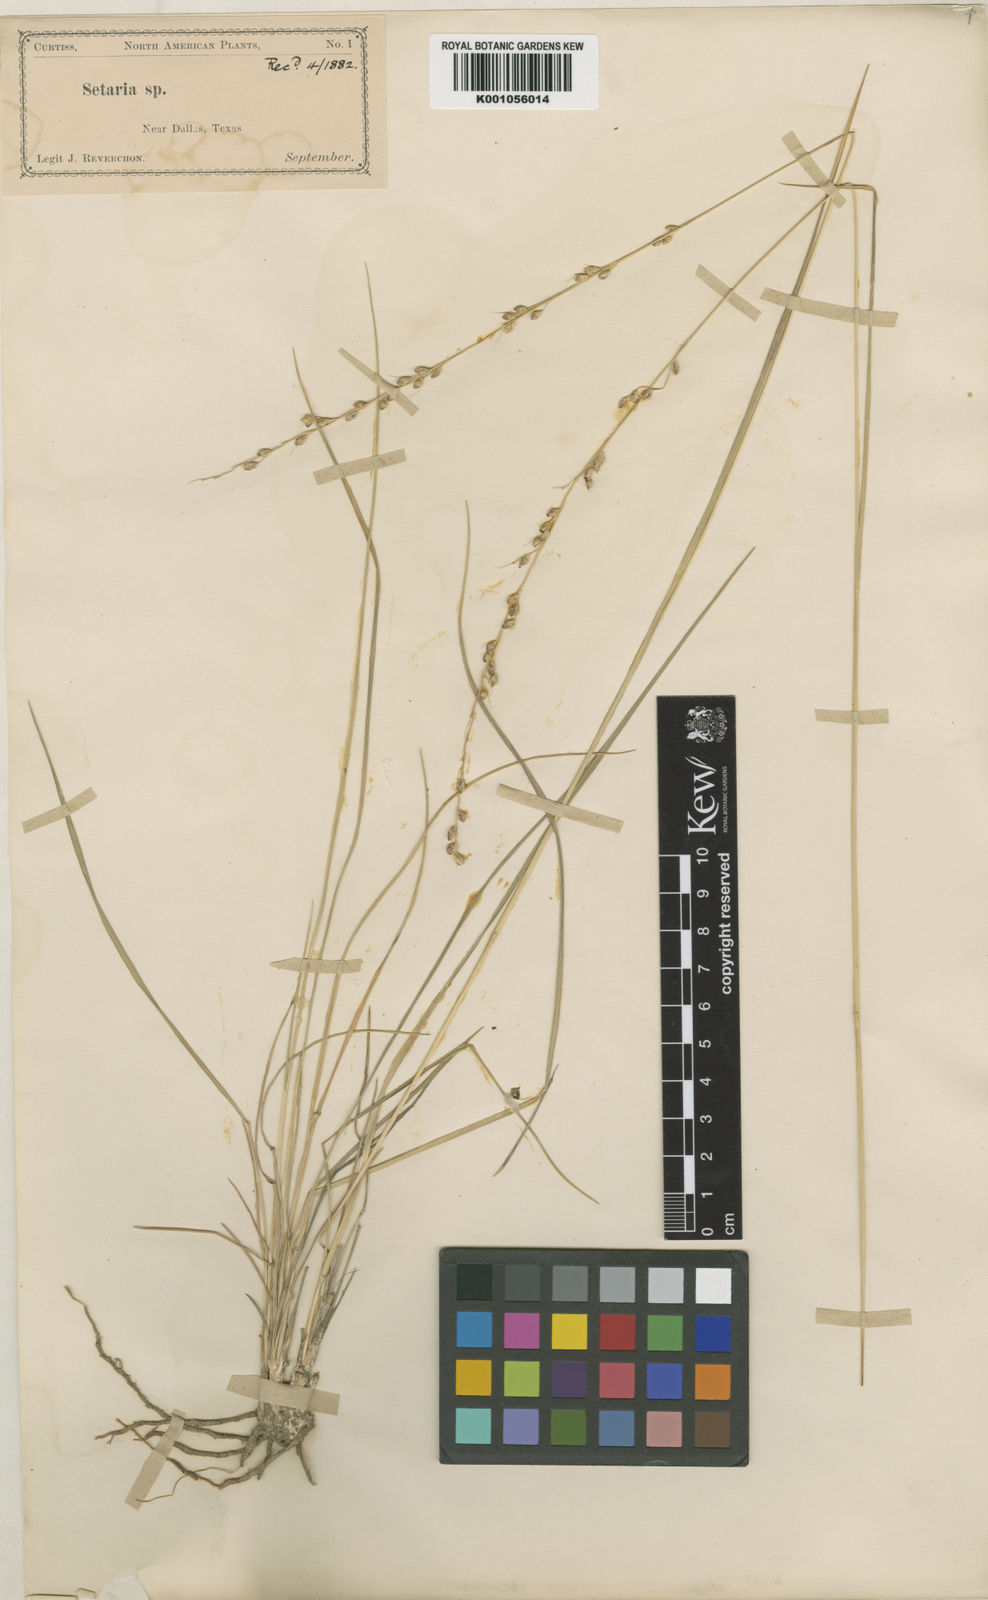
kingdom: Plantae
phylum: Tracheophyta
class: Liliopsida
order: Poales
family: Poaceae
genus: Setaria
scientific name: Setaria
